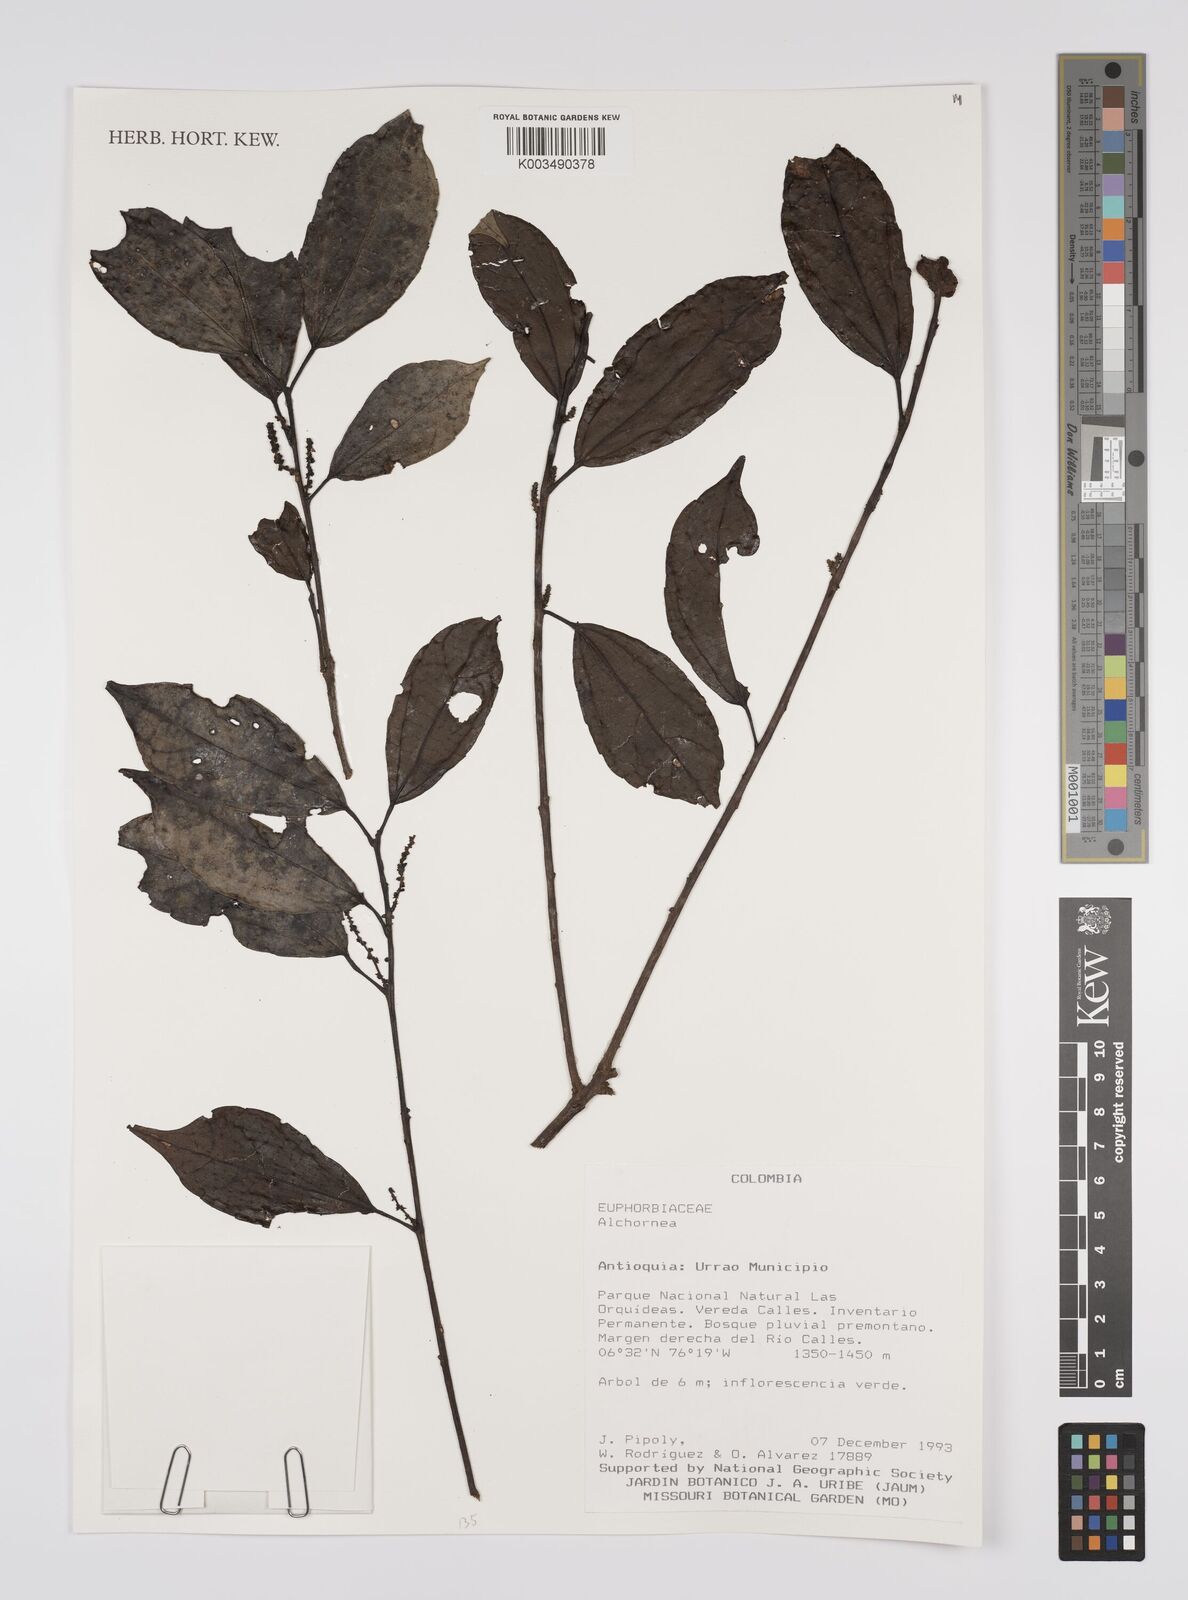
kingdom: Plantae
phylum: Tracheophyta
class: Magnoliopsida
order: Malpighiales
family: Euphorbiaceae
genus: Alchornea
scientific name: Alchornea
